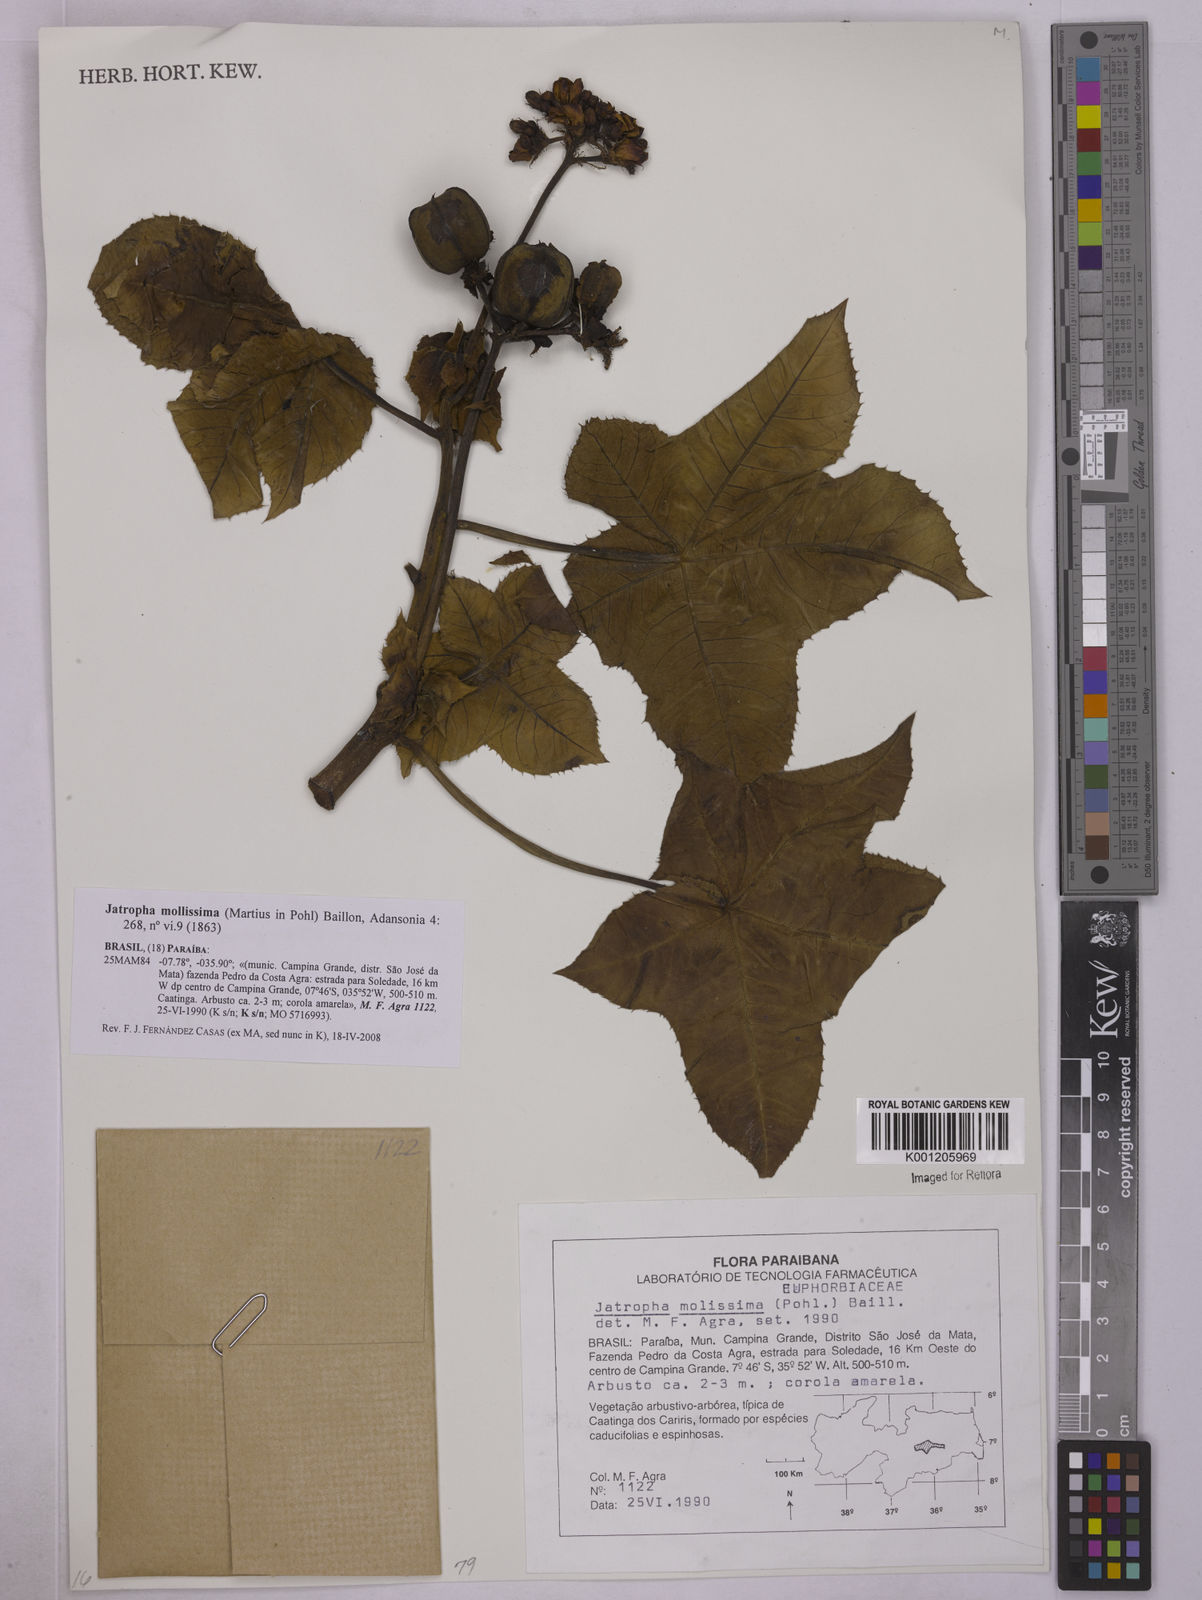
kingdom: Plantae
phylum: Tracheophyta
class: Magnoliopsida
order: Malpighiales
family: Euphorbiaceae
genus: Jatropha
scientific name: Jatropha mollissima
